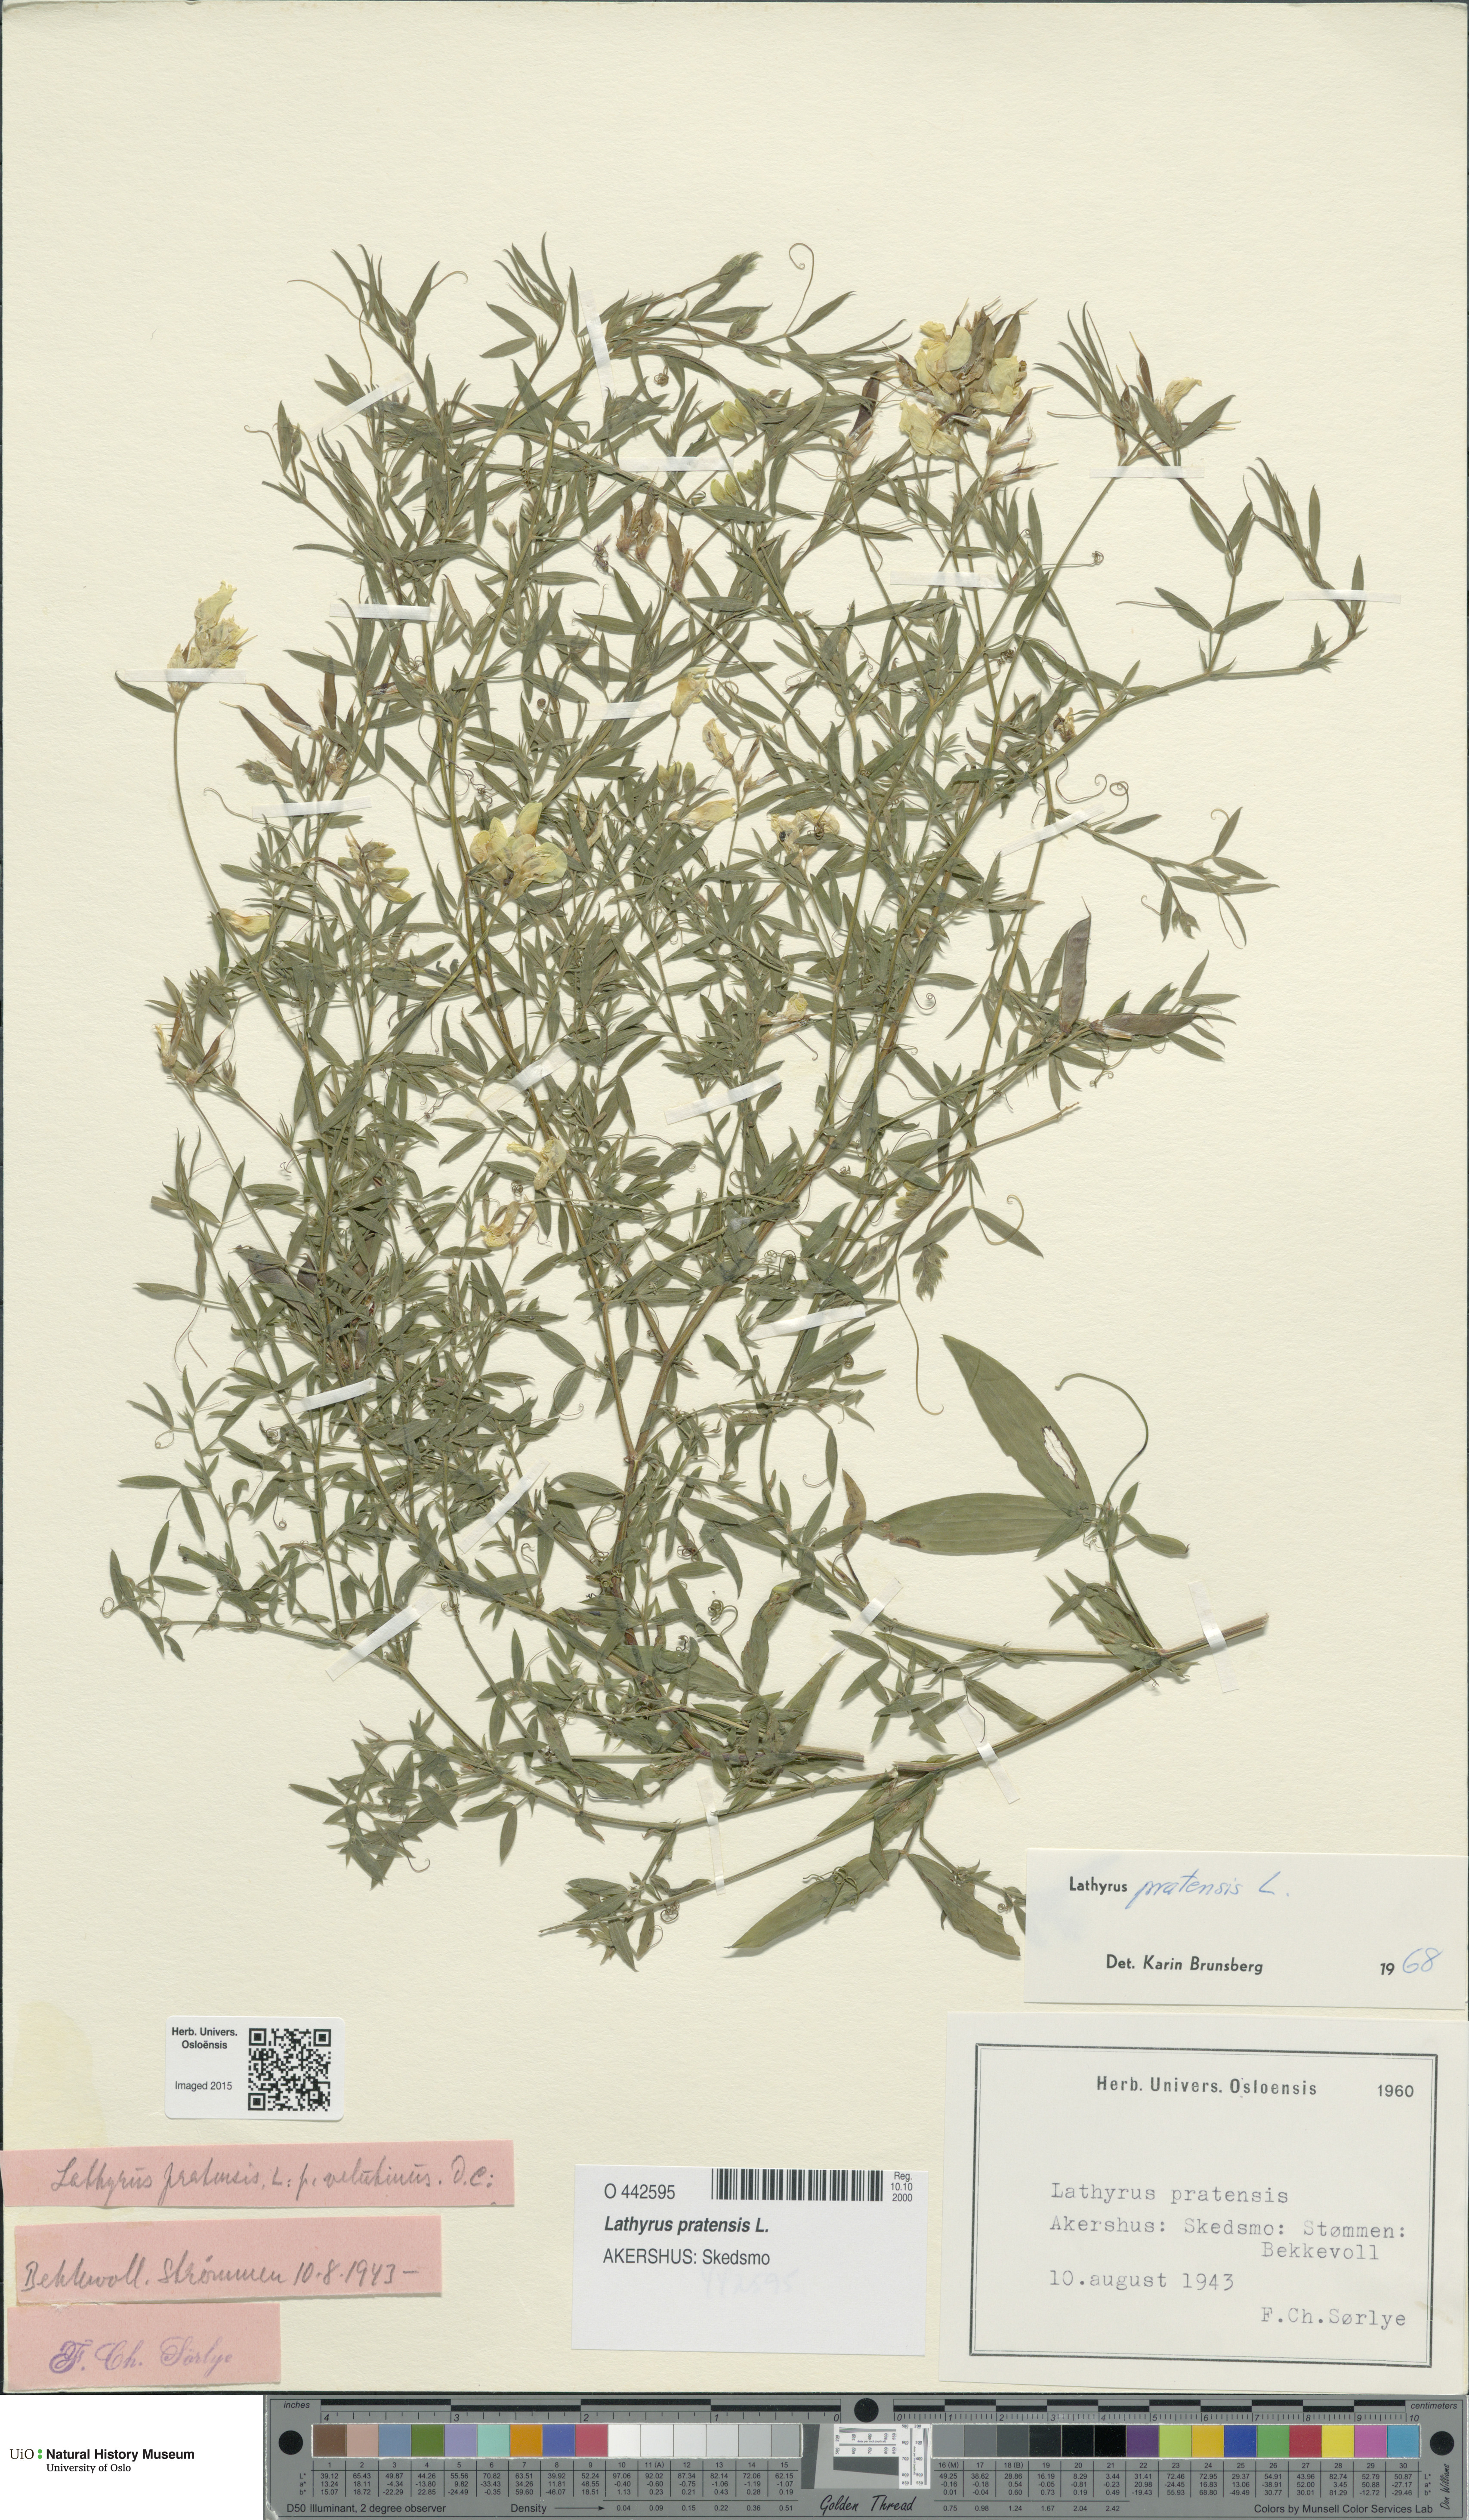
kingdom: Plantae
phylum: Tracheophyta
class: Magnoliopsida
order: Fabales
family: Fabaceae
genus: Lathyrus
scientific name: Lathyrus pratensis
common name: Meadow vetchling
